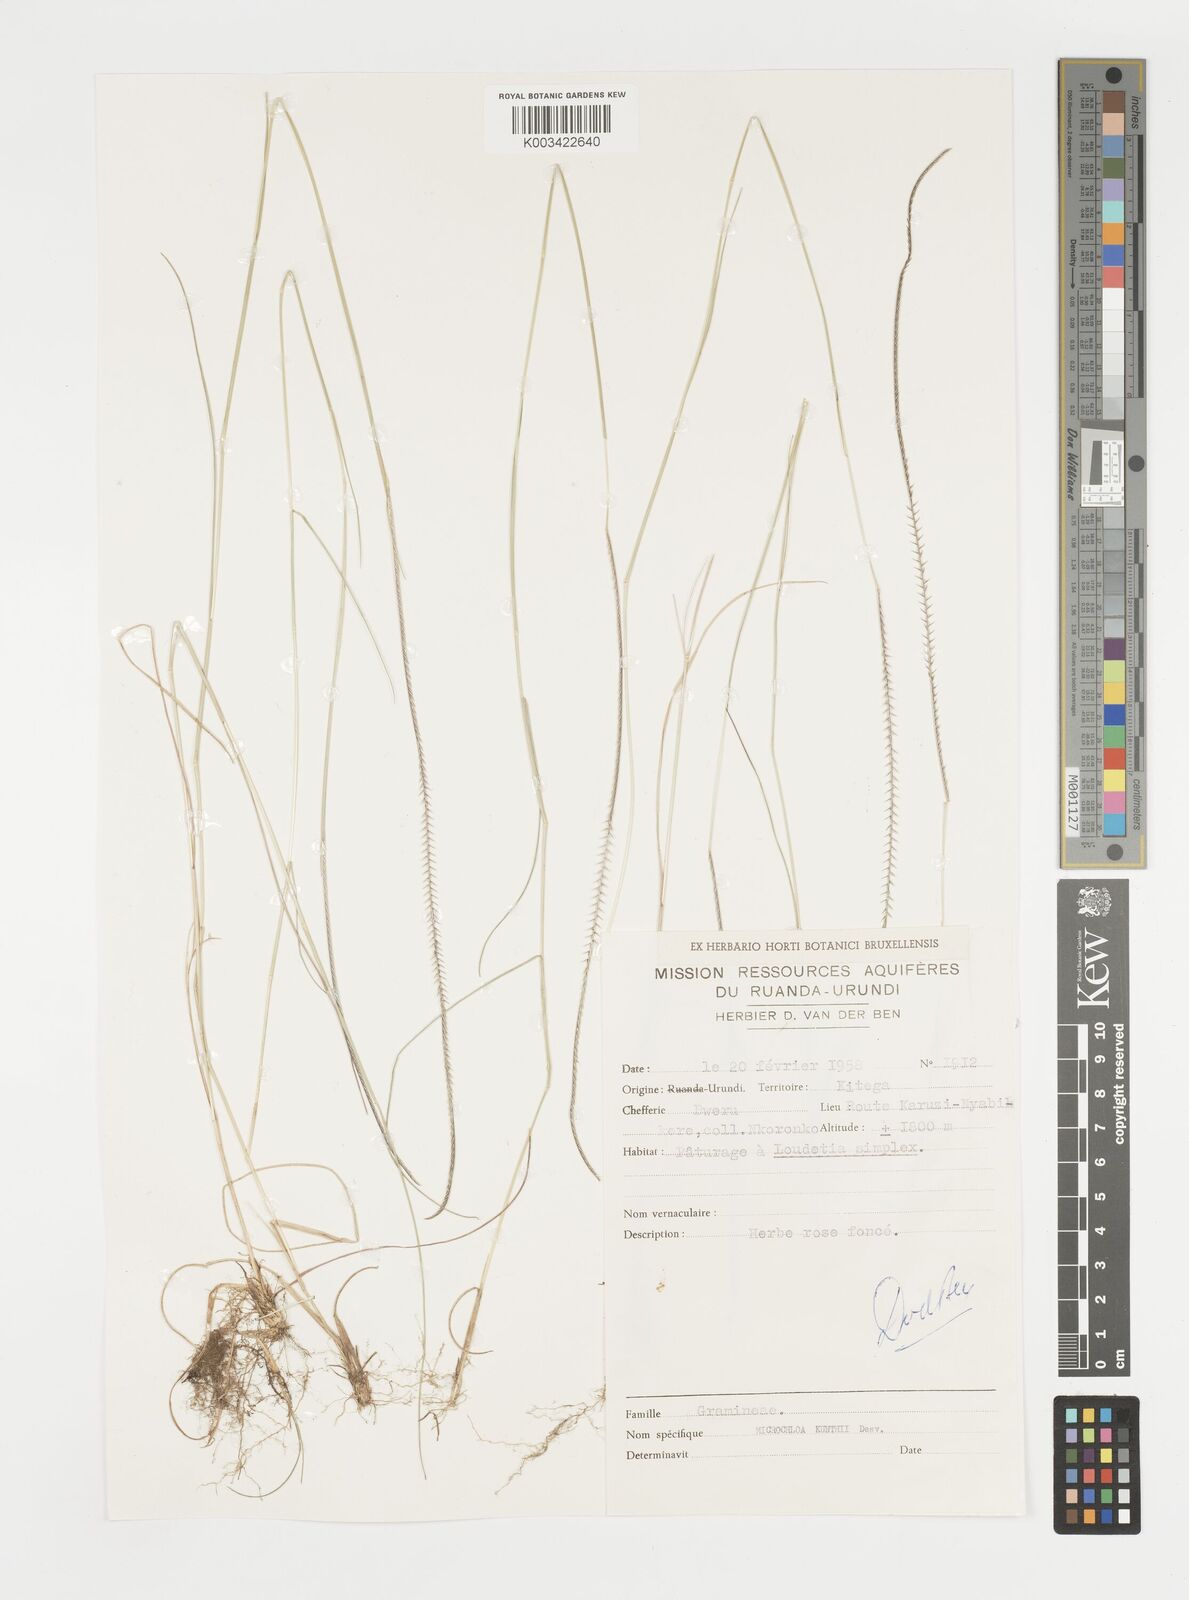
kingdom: Plantae
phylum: Tracheophyta
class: Liliopsida
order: Poales
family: Poaceae
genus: Microchloa
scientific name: Microchloa kunthii
